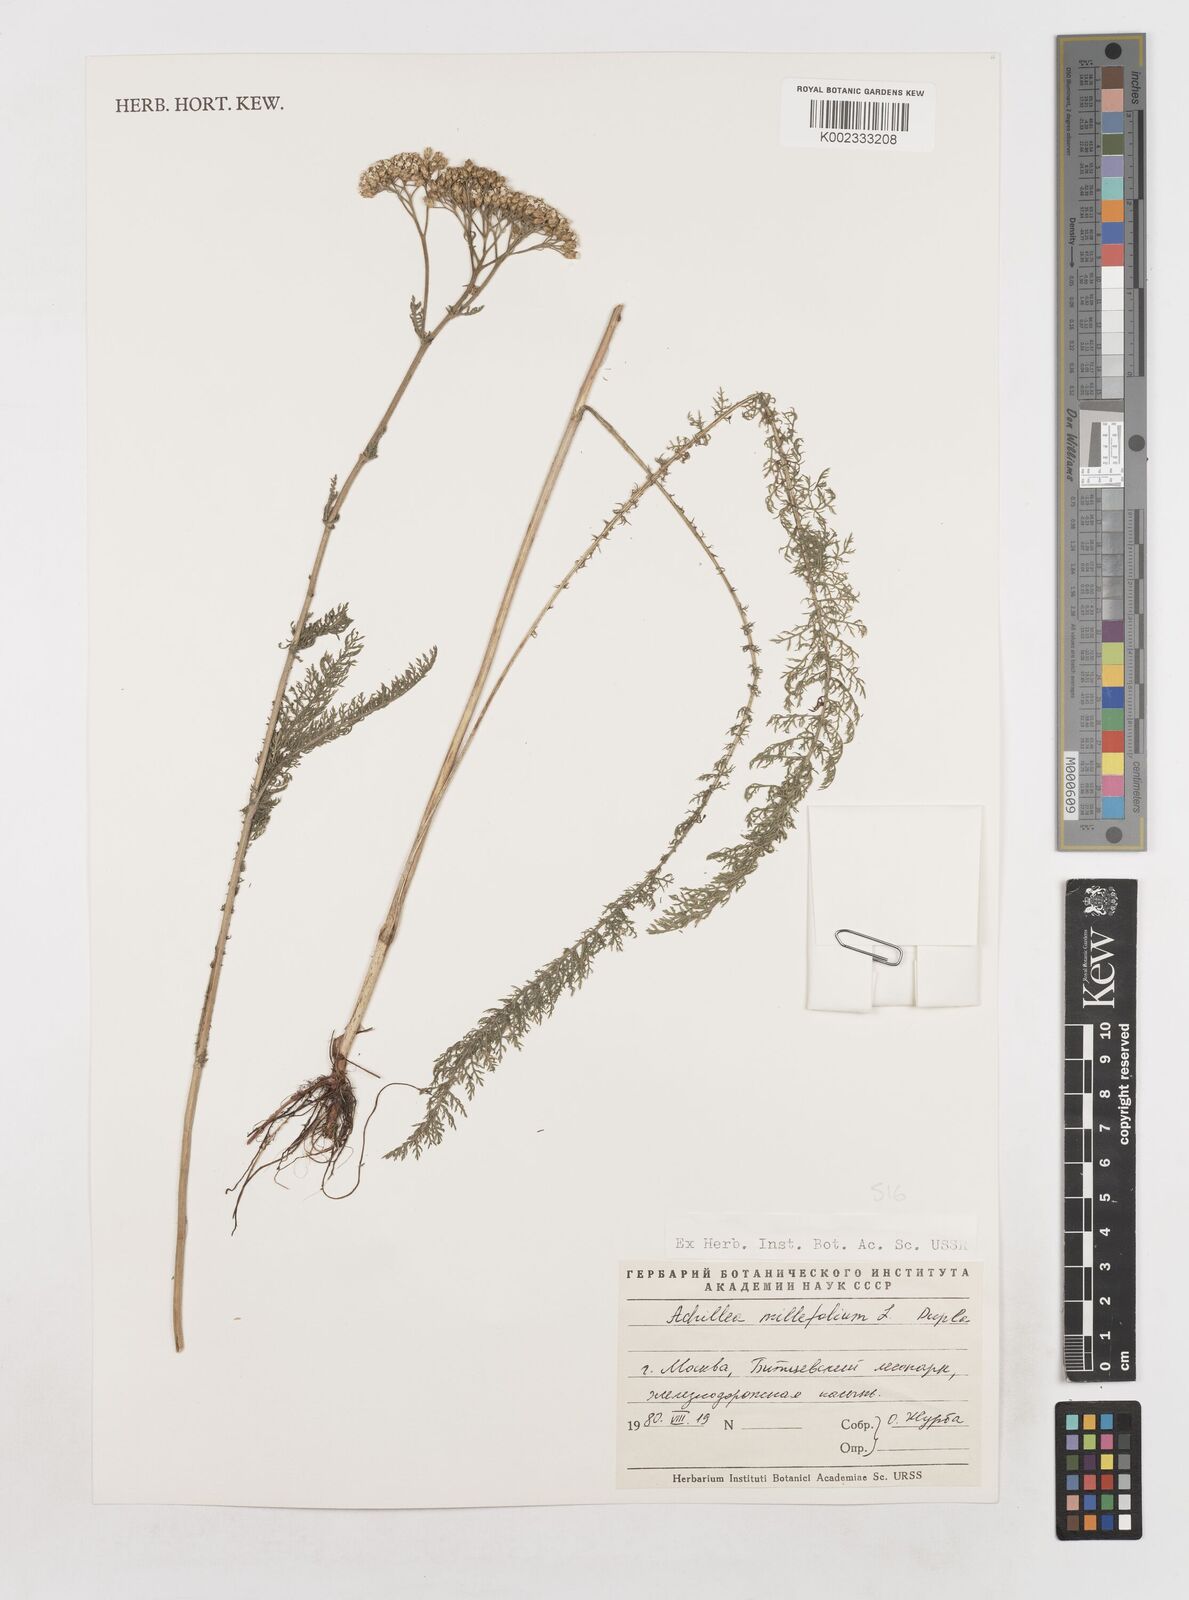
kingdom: Plantae
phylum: Tracheophyta
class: Magnoliopsida
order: Asterales
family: Asteraceae
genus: Achillea
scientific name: Achillea millefolium
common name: Yarrow
